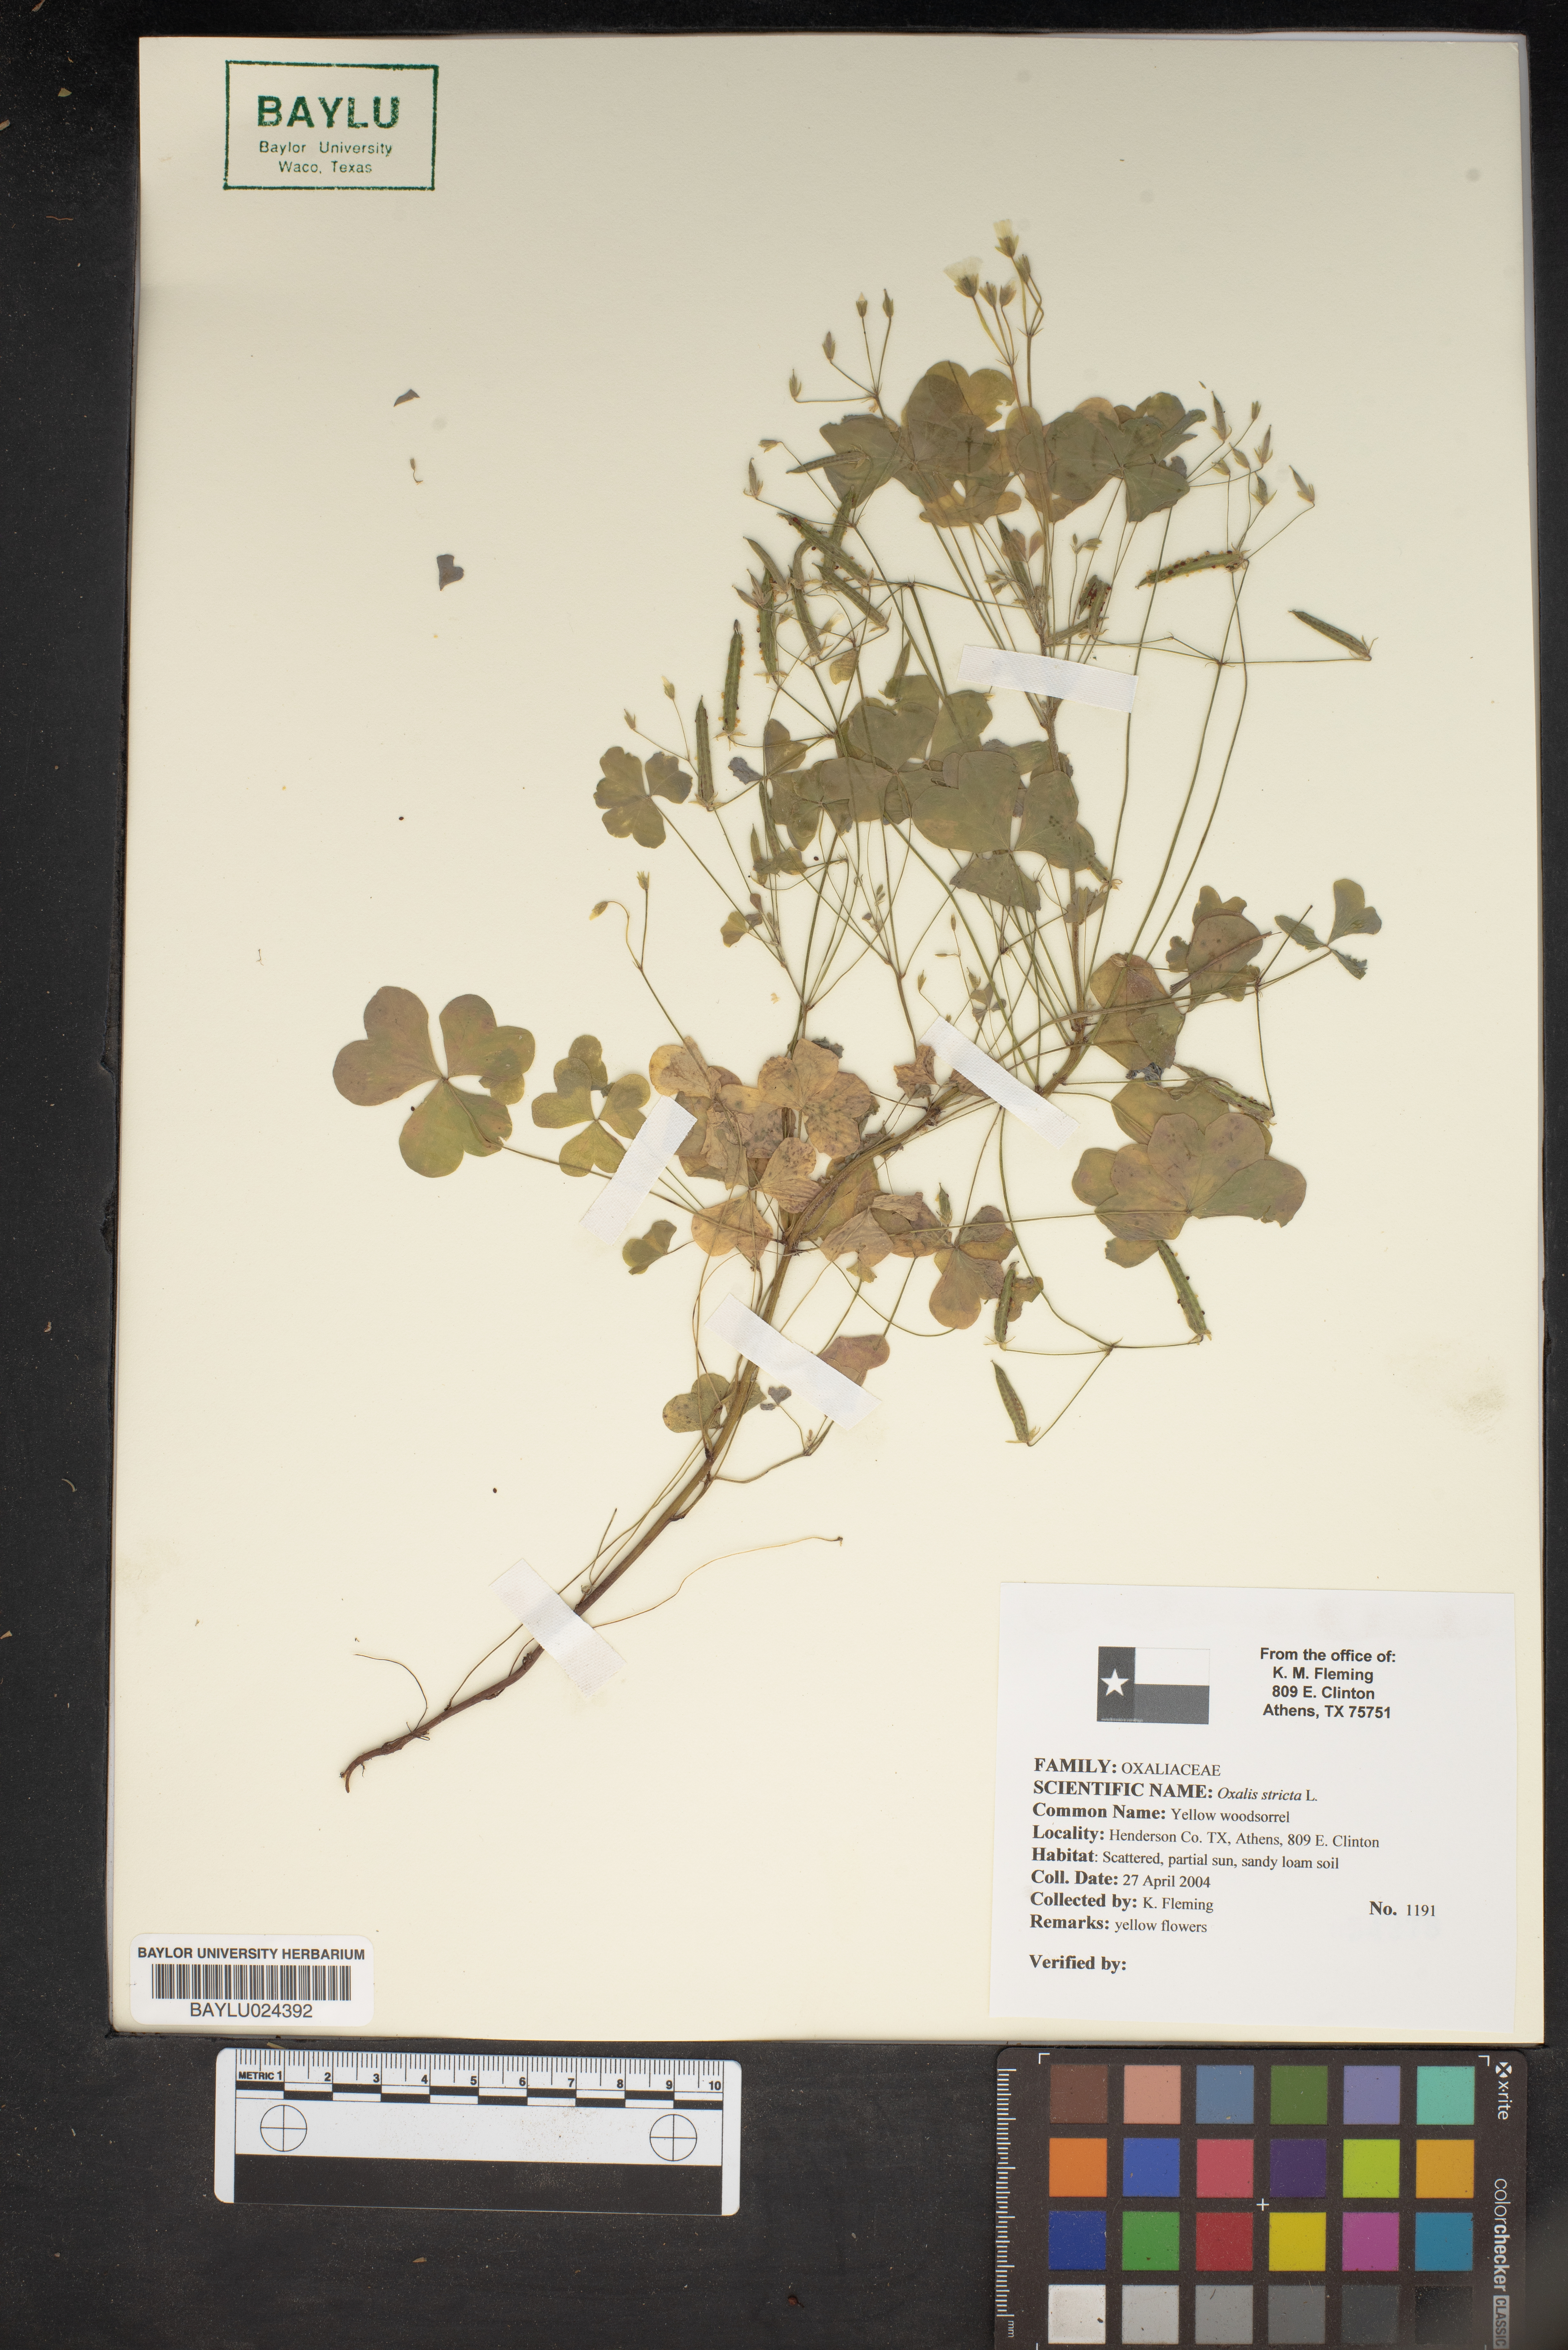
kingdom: Plantae
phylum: Tracheophyta
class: Magnoliopsida
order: Oxalidales
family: Oxalidaceae
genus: Oxalis
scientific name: Oxalis stricta
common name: Upright yellow-sorrel
